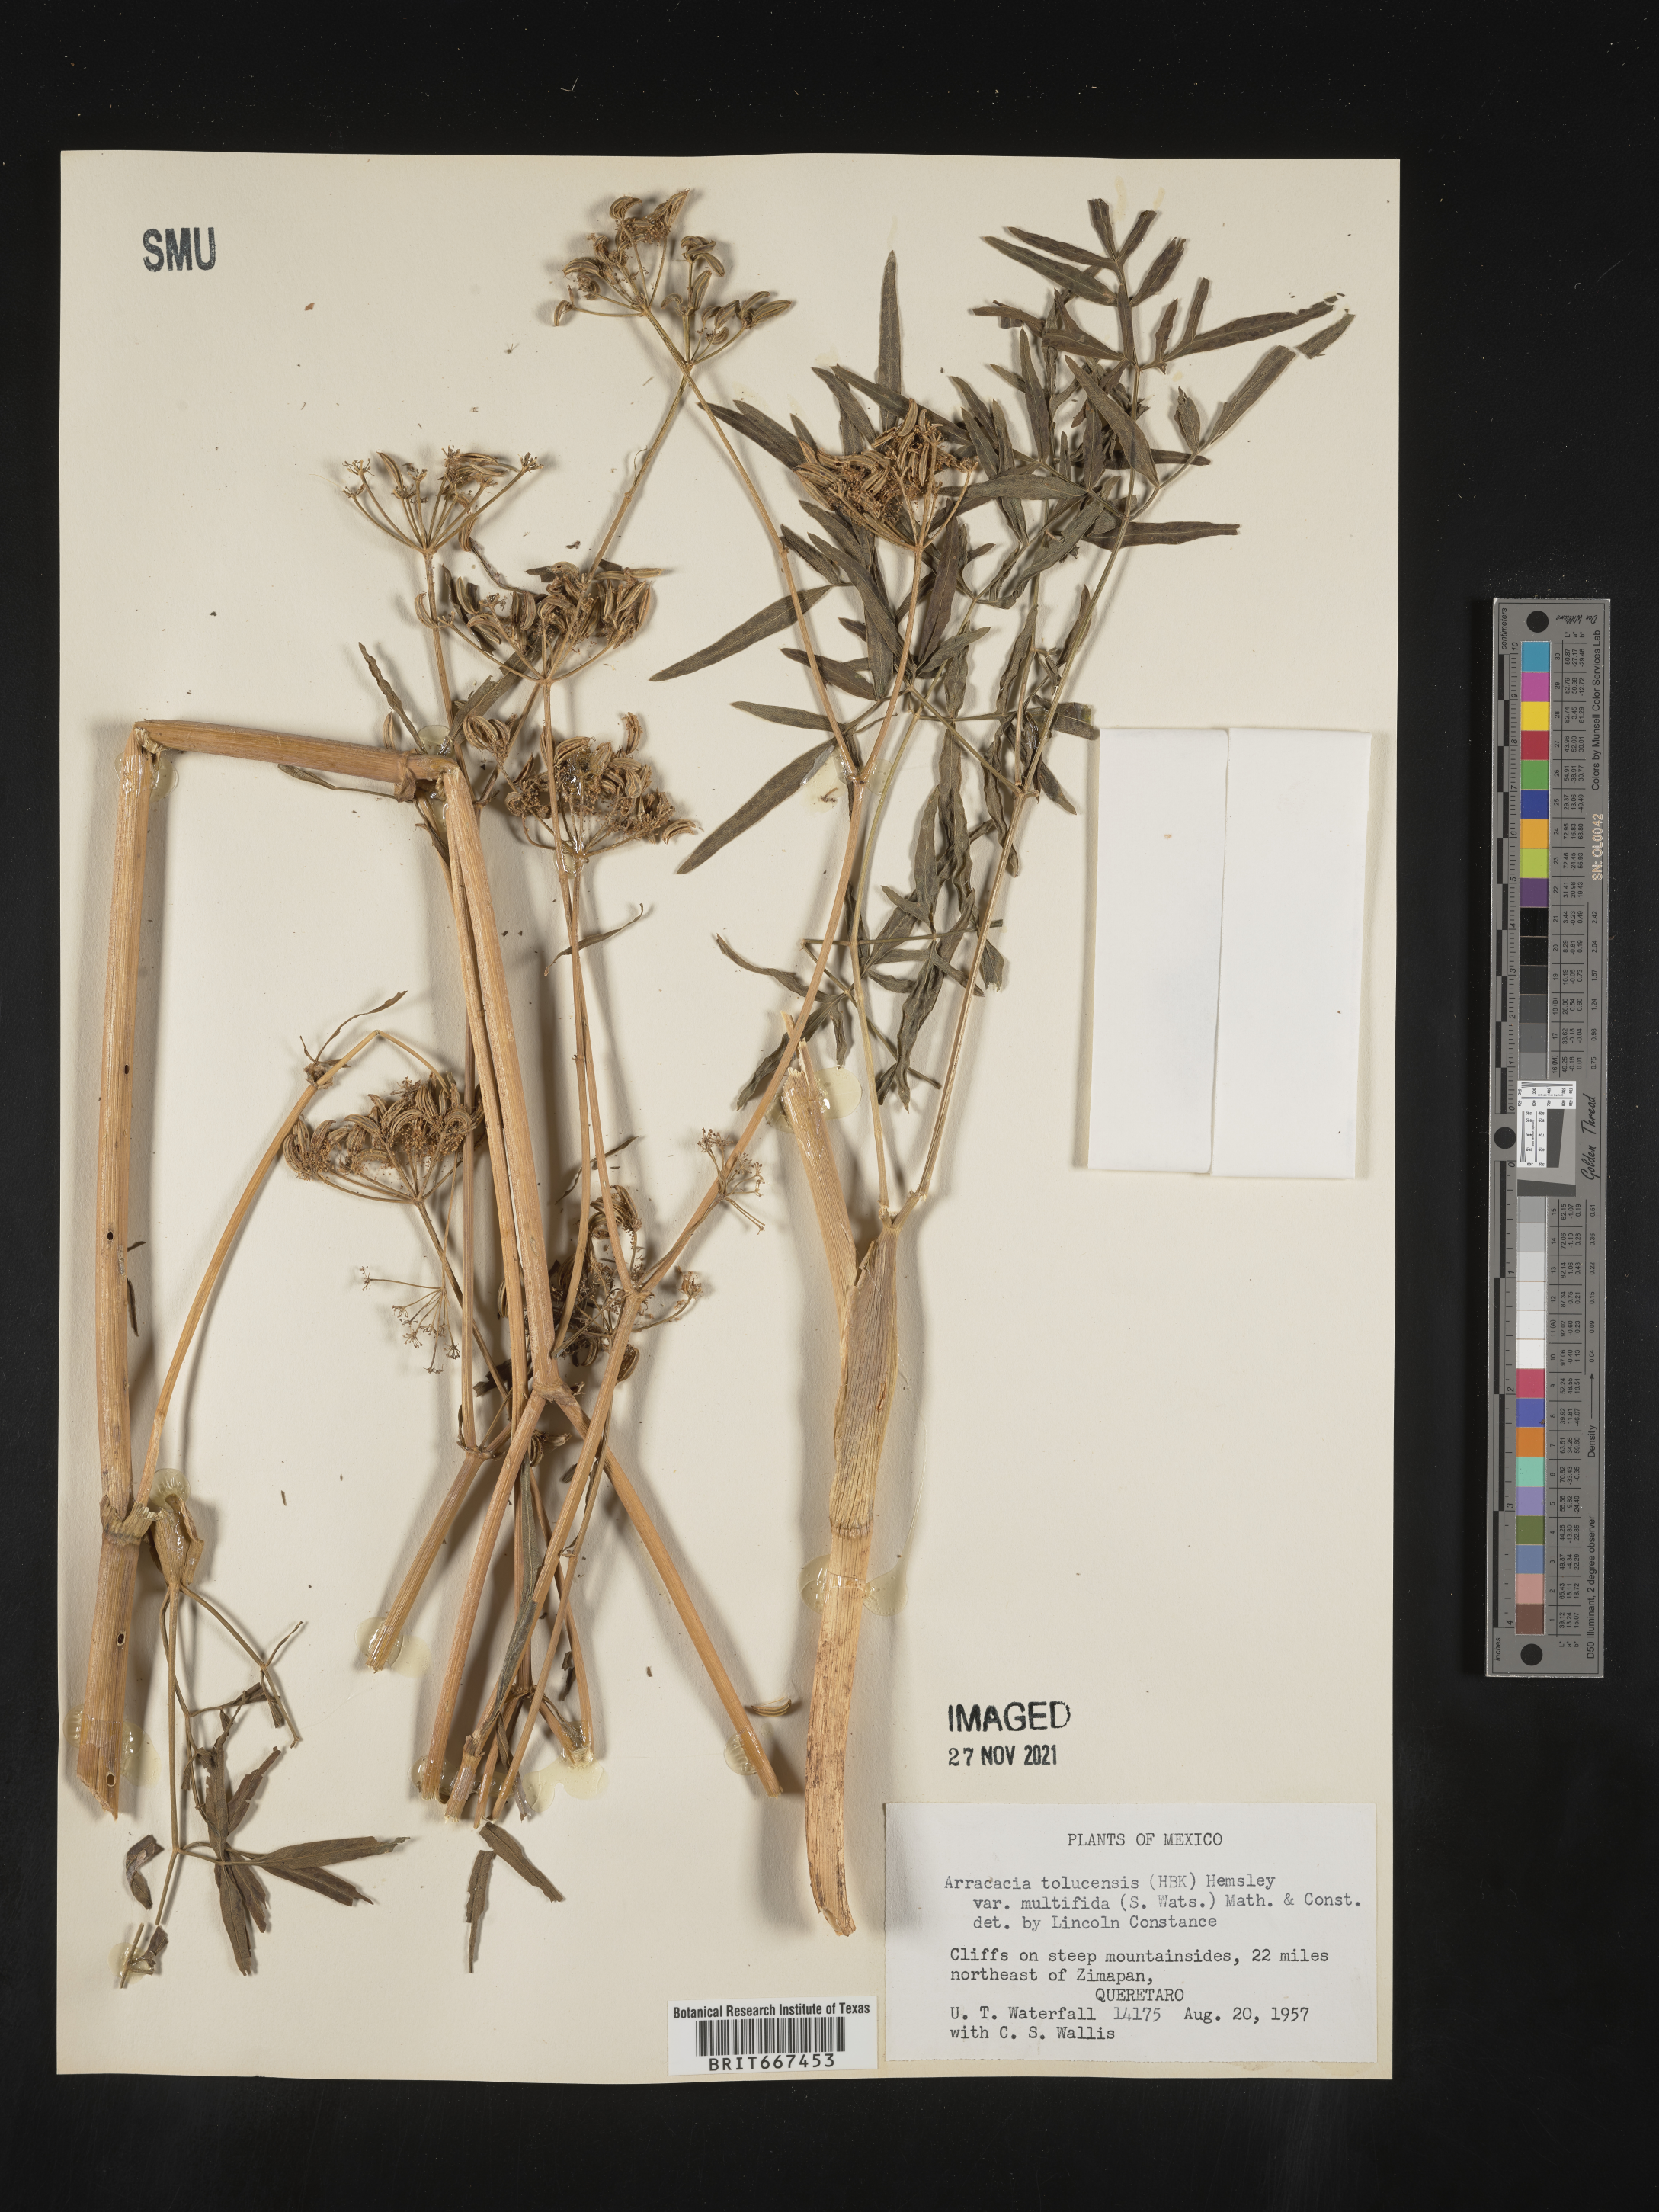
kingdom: Plantae
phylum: Tracheophyta
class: Magnoliopsida
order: Apiales
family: Apiaceae
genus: Arracacia
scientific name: Arracacia
